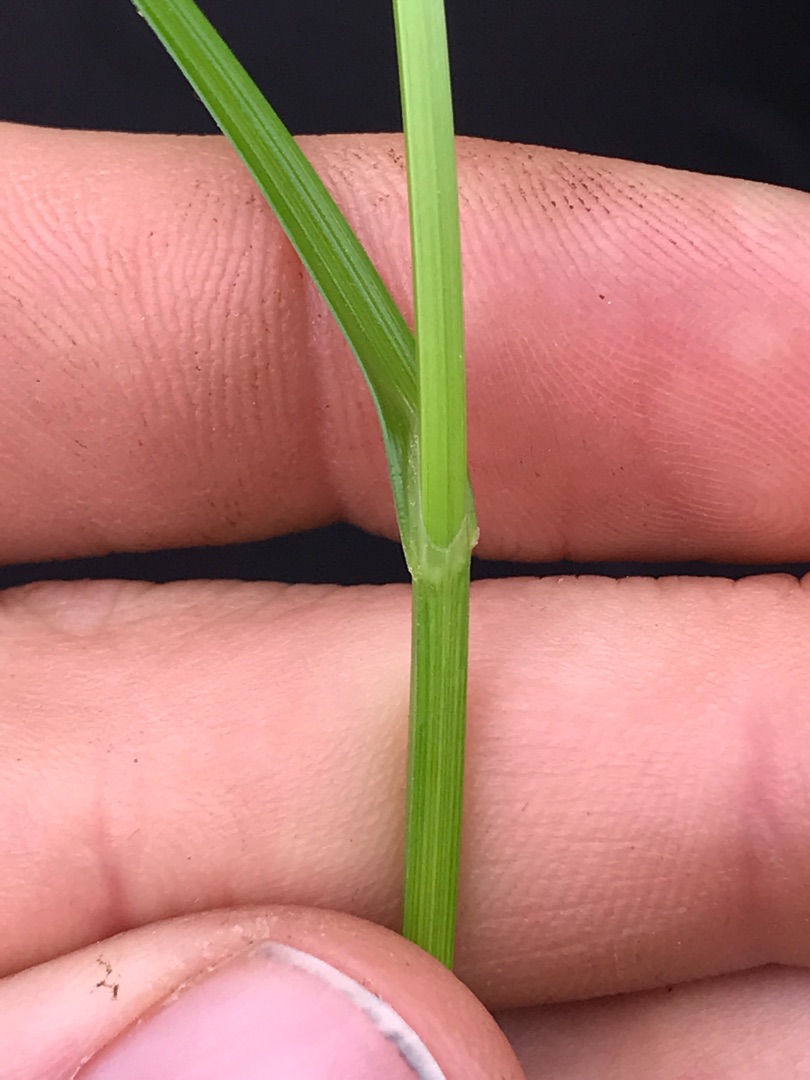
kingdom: Plantae
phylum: Tracheophyta
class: Liliopsida
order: Poales
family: Cyperaceae
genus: Carex
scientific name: Carex disticha
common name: Toradet star
